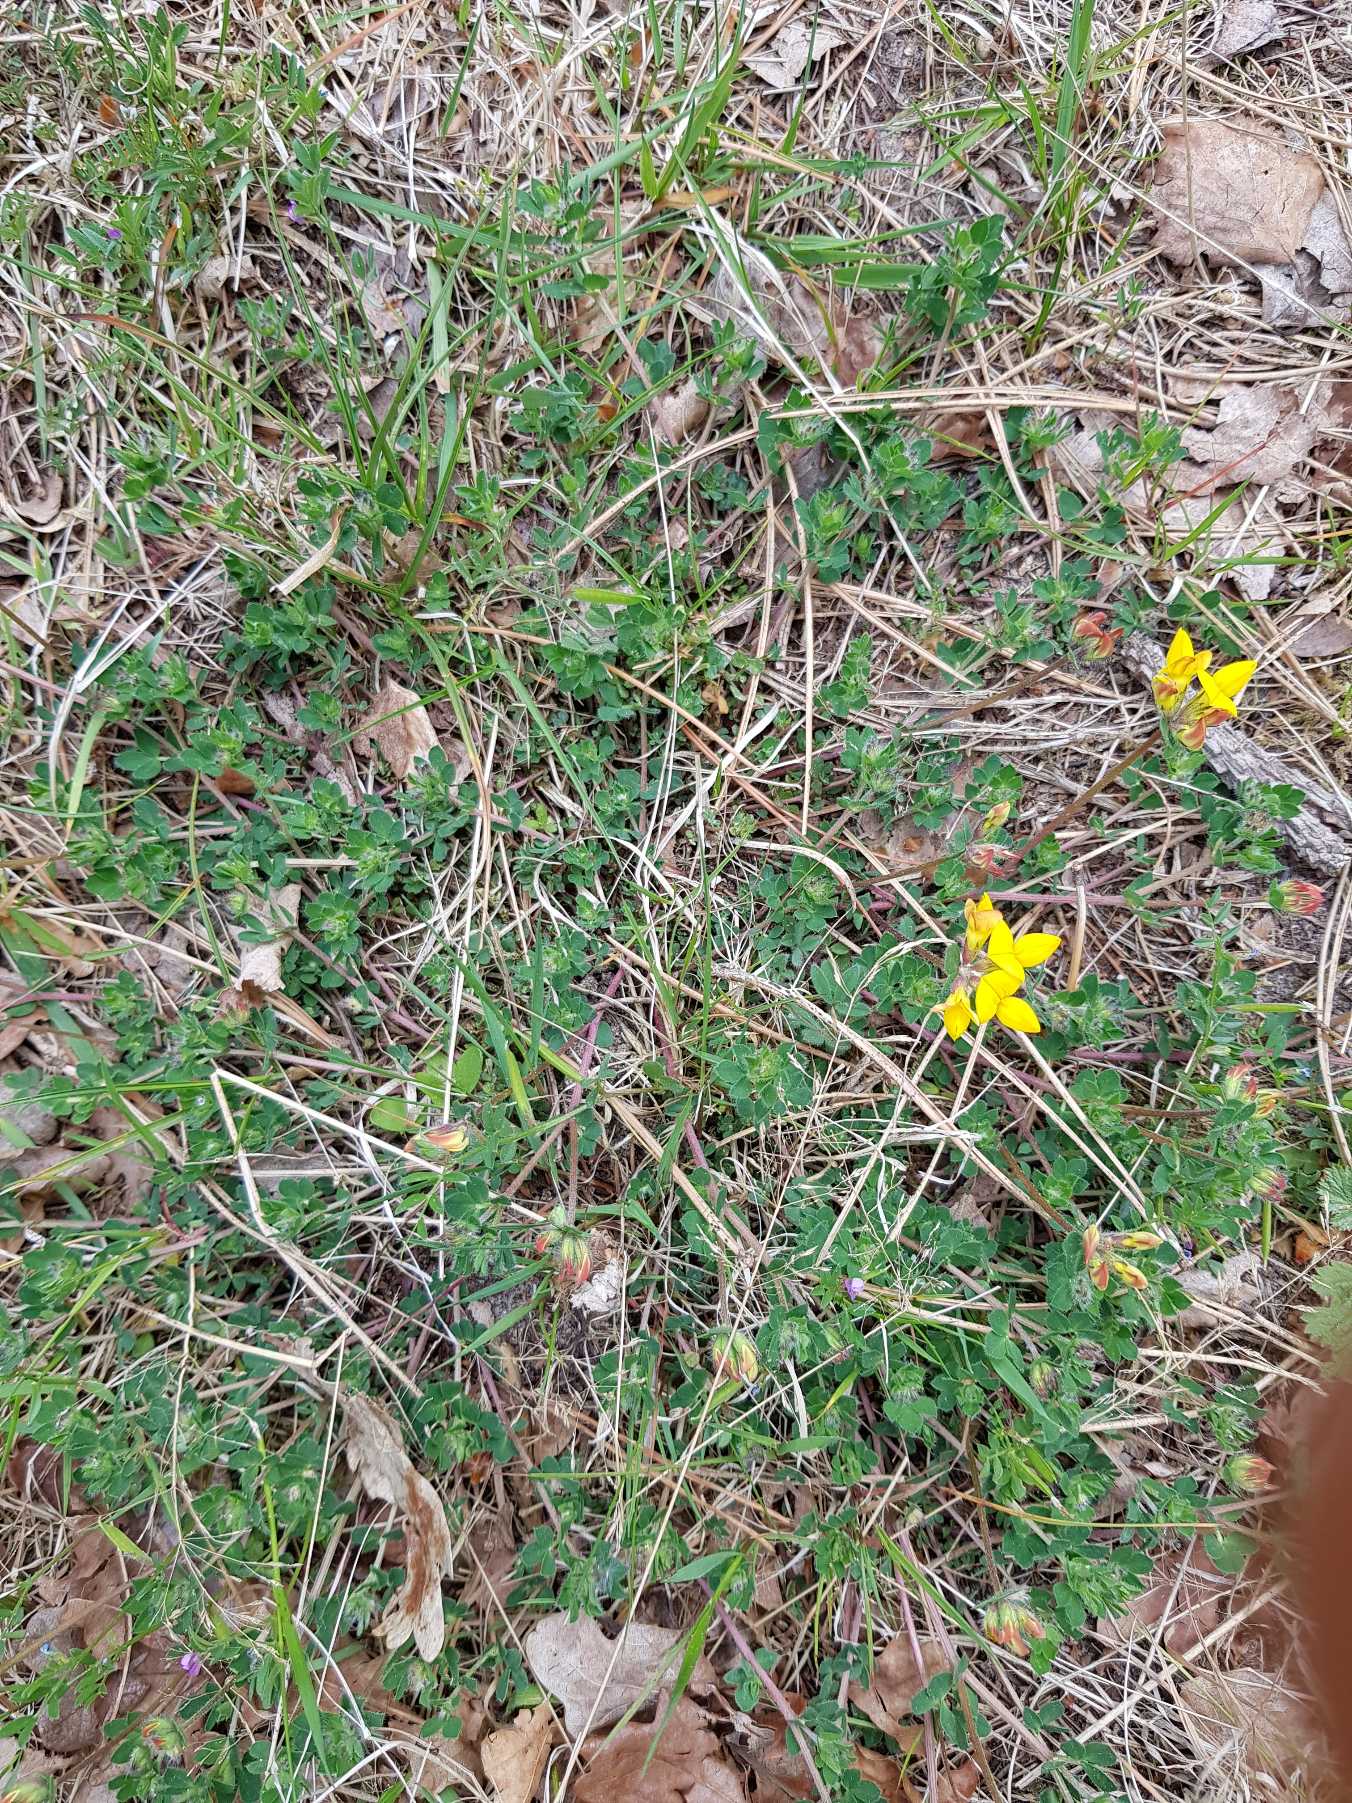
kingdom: Plantae
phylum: Tracheophyta
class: Magnoliopsida
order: Fabales
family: Fabaceae
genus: Lotus
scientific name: Lotus corniculatus
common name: Almindelig kællingetand
